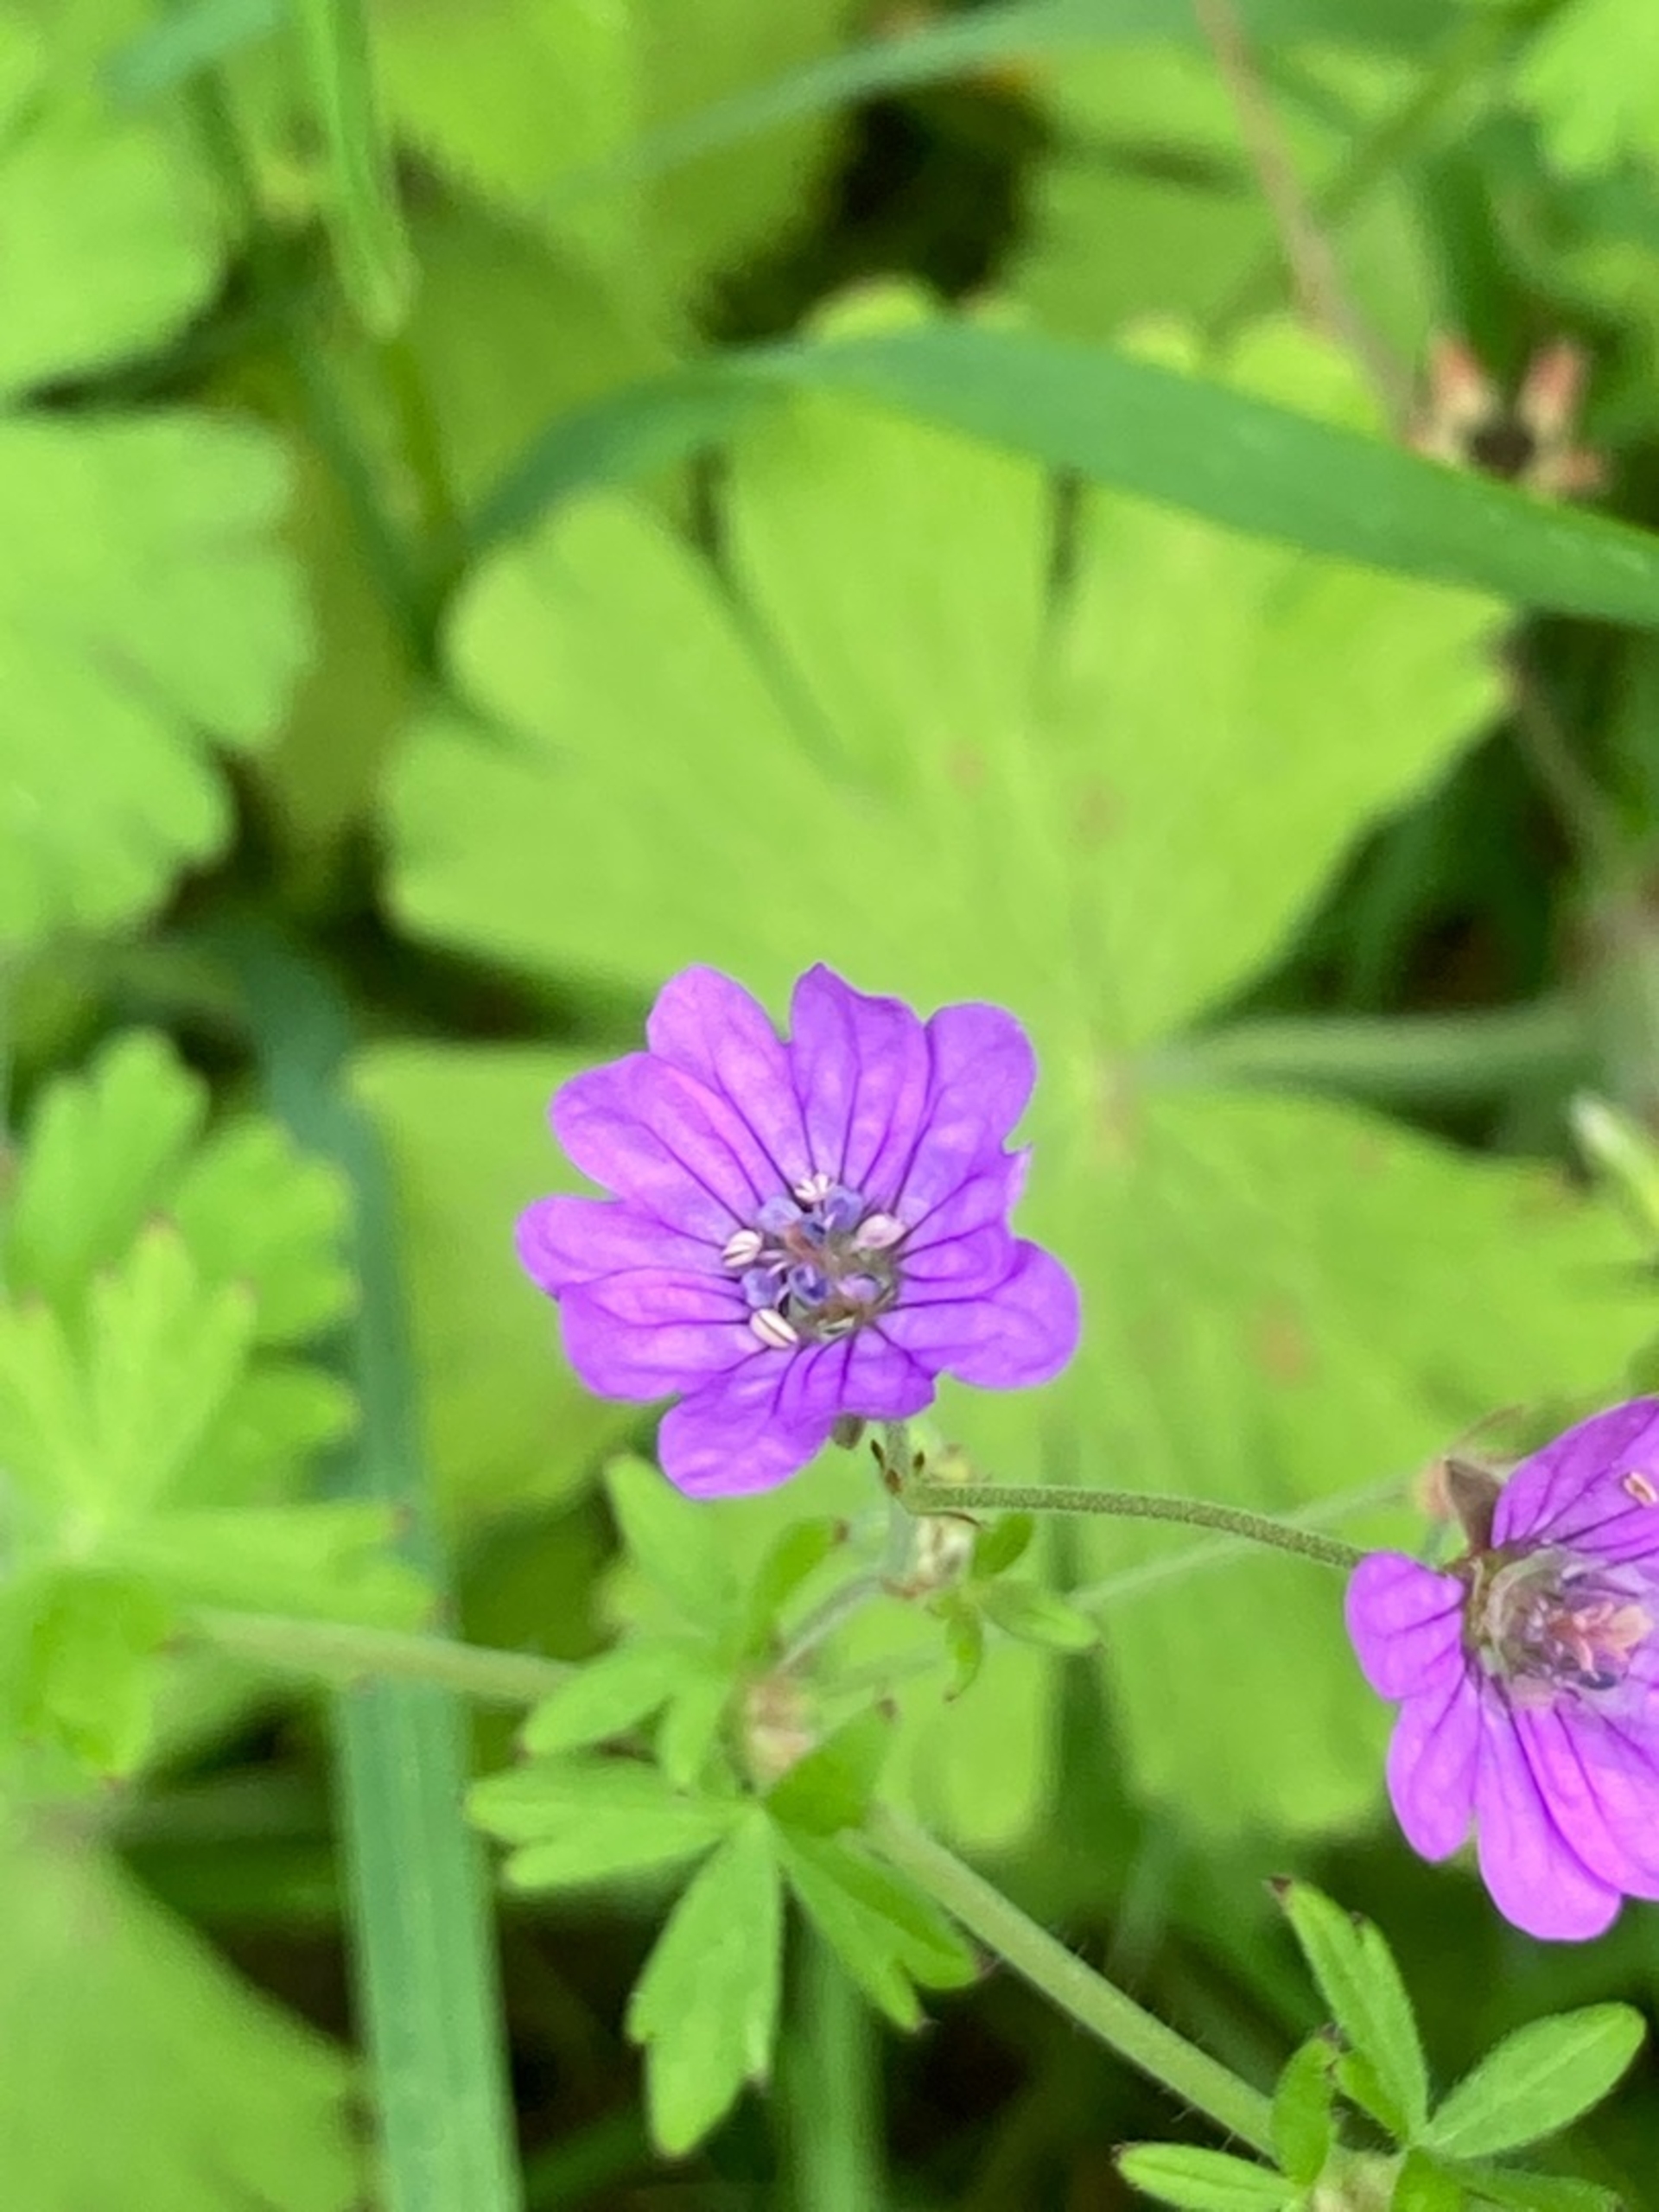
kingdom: Plantae
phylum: Tracheophyta
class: Magnoliopsida
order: Geraniales
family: Geraniaceae
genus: Geranium
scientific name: Geranium pyrenaicum
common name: Pyrenæisk storkenæb
